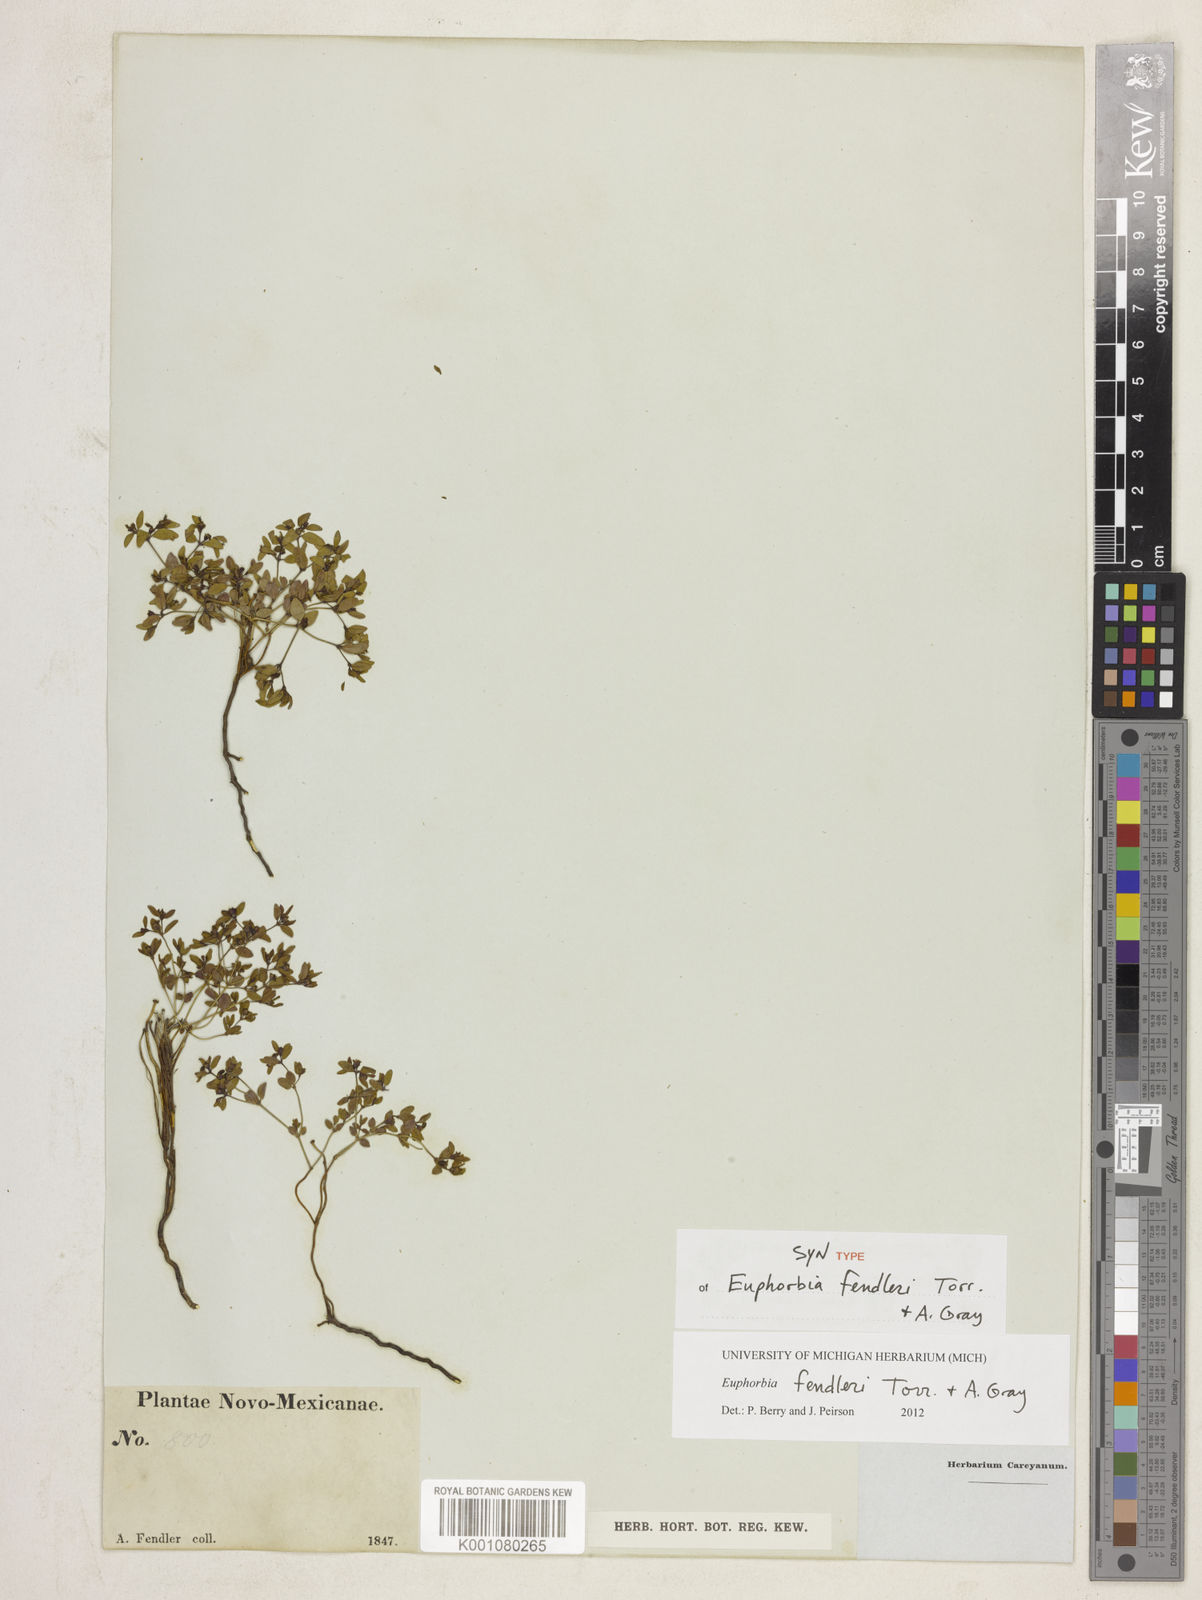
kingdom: Plantae
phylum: Tracheophyta
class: Magnoliopsida
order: Malpighiales
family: Euphorbiaceae
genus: Euphorbia
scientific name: Euphorbia fendleri
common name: Fendler's euphorbia
